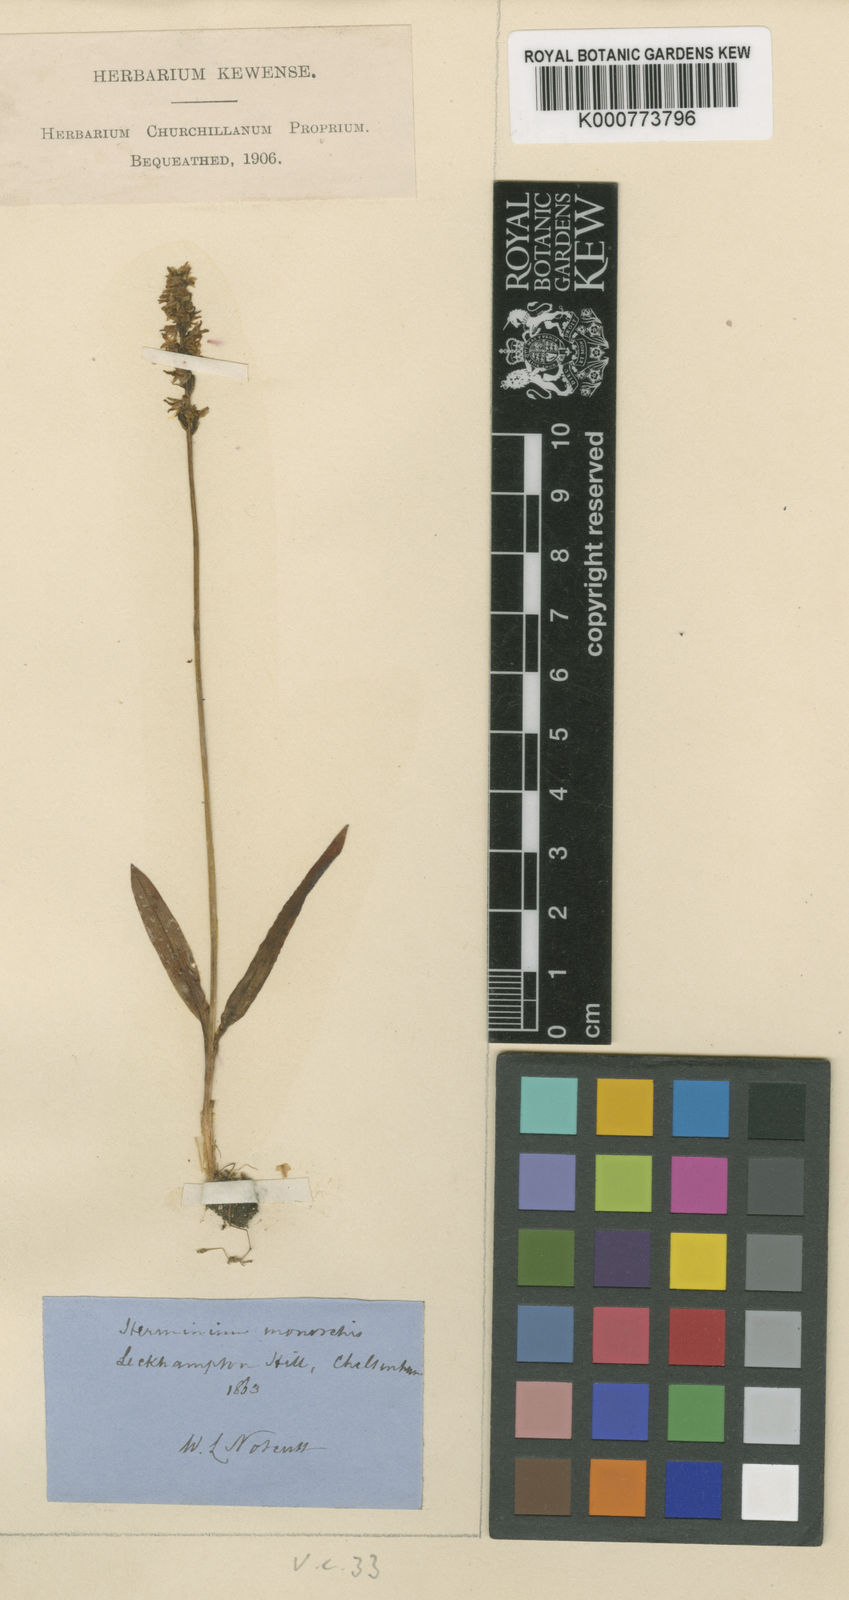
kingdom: Plantae
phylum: Tracheophyta
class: Liliopsida
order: Asparagales
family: Orchidaceae
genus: Herminium
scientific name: Herminium monorchis
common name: Musk orchid
